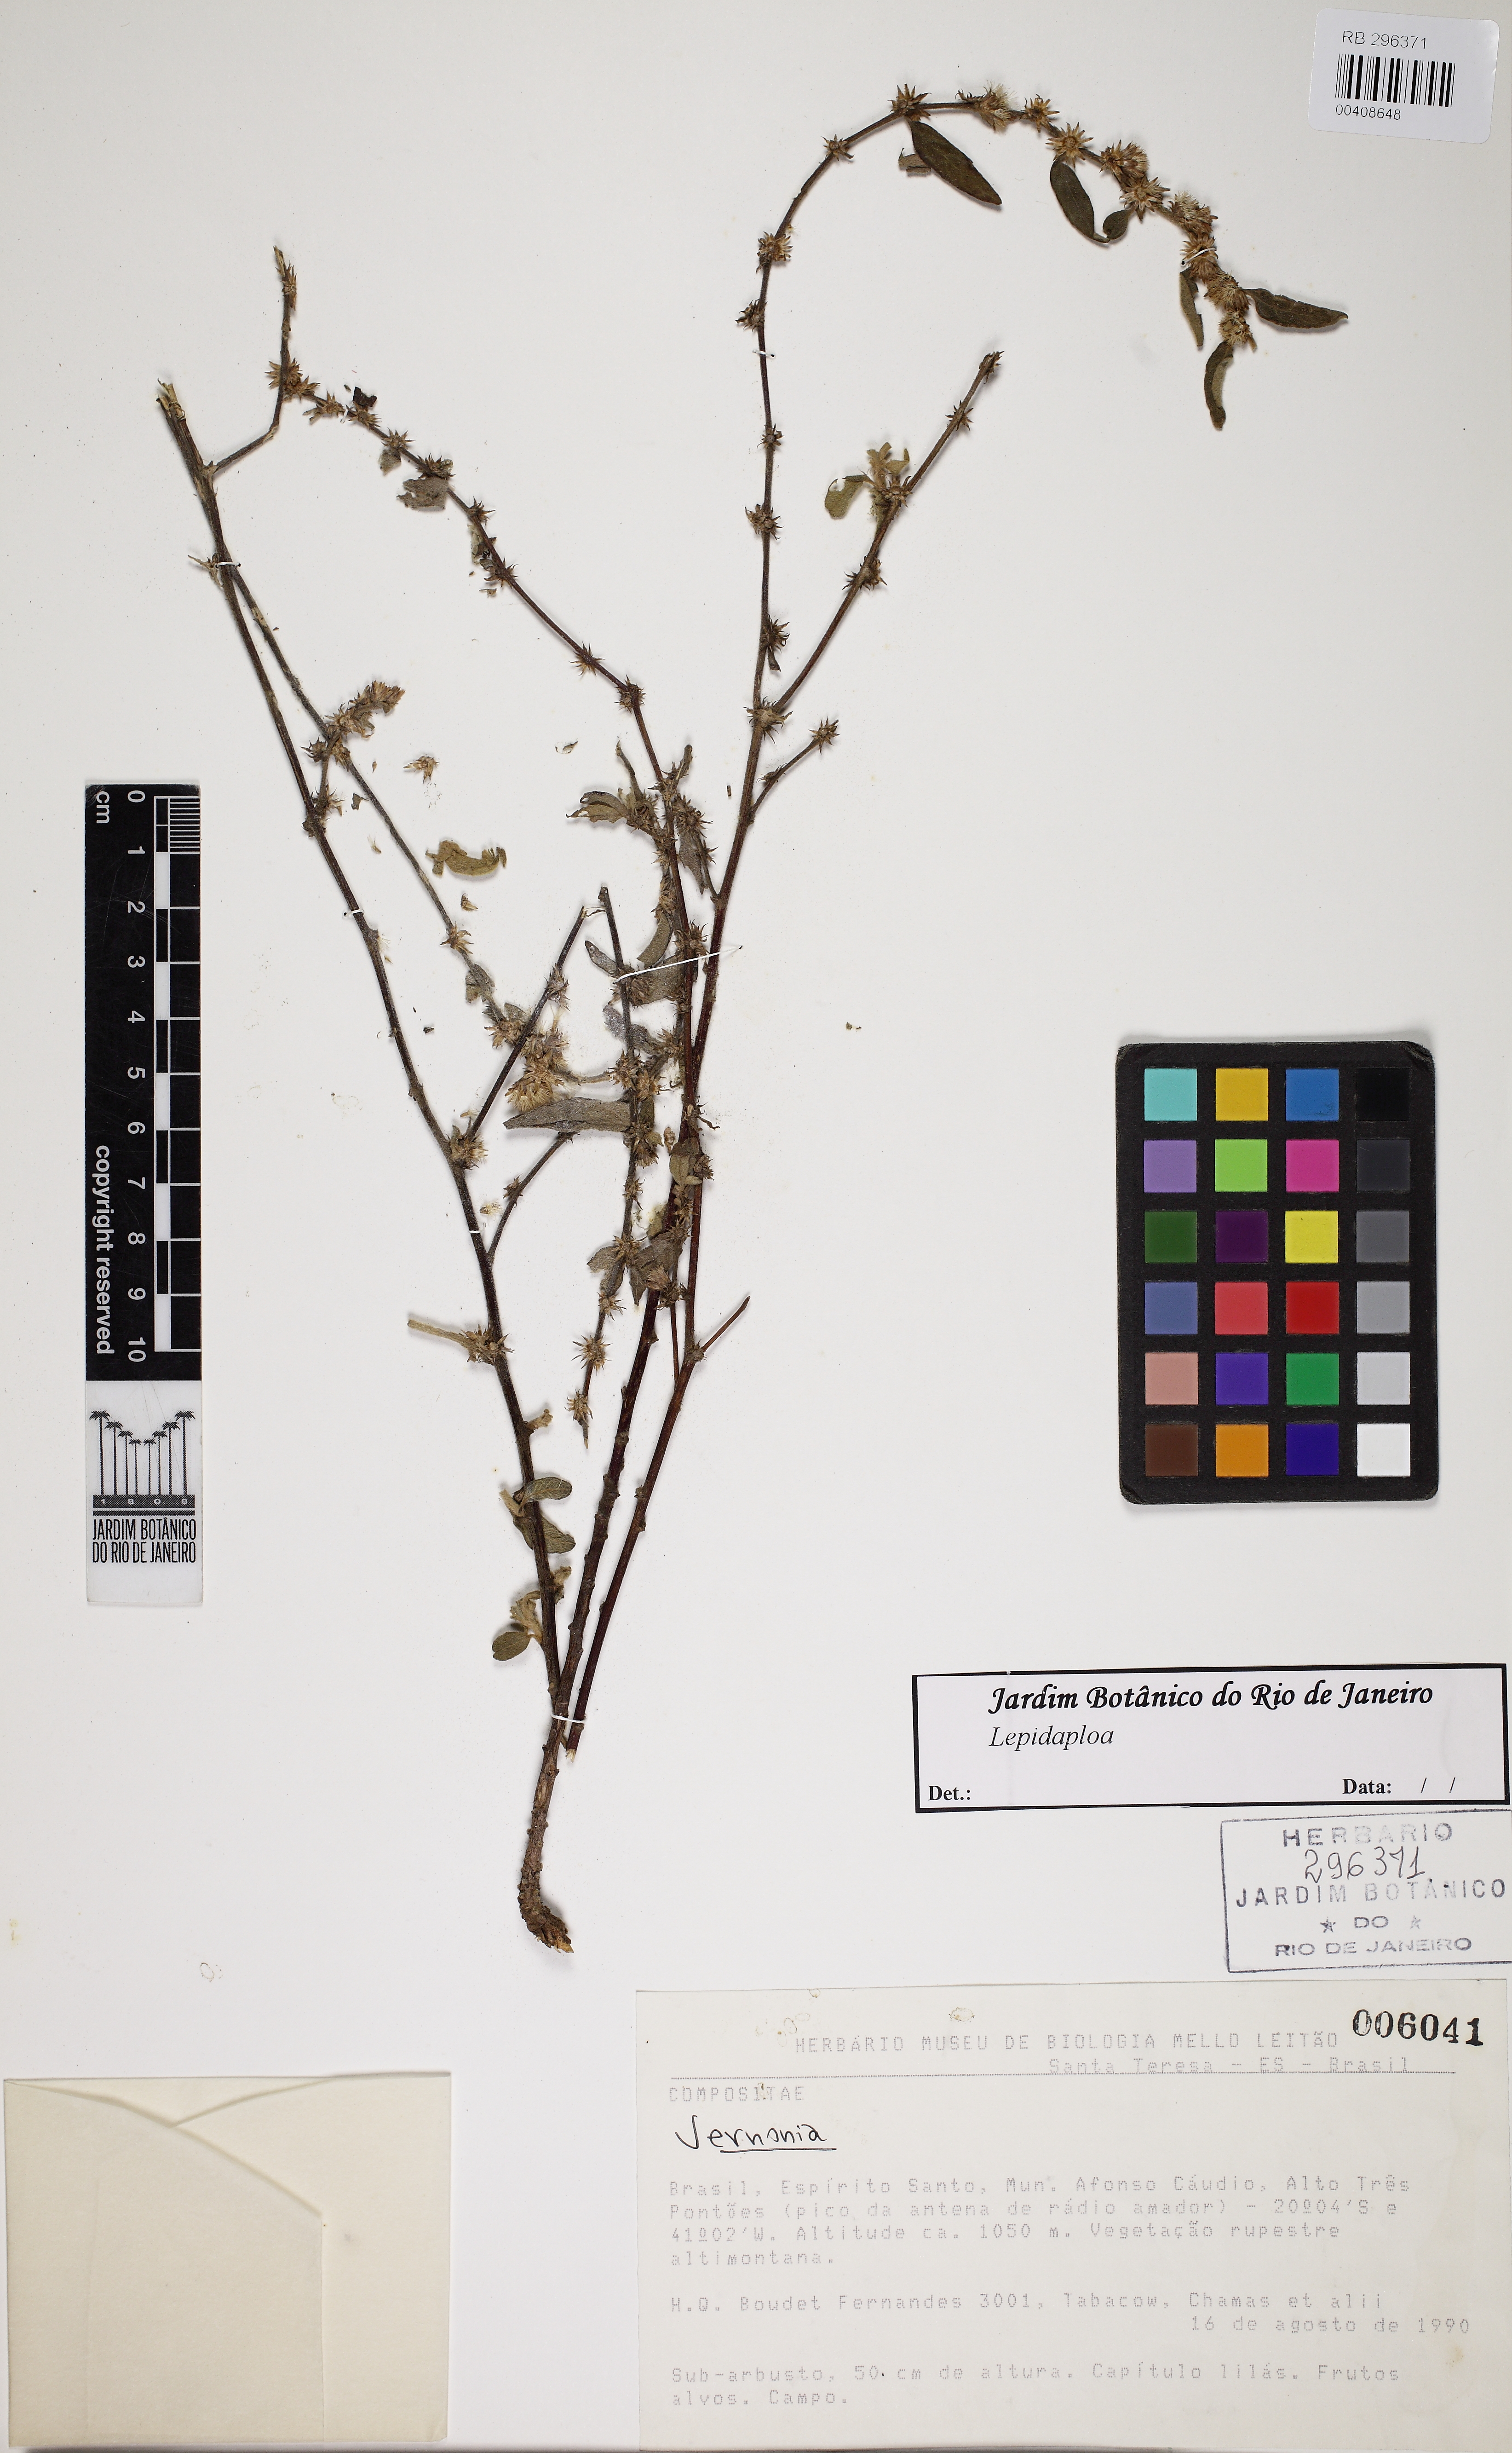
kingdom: Plantae
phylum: Tracheophyta
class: Magnoliopsida
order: Asterales
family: Asteraceae
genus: Lepidaploa
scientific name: Lepidaploa
